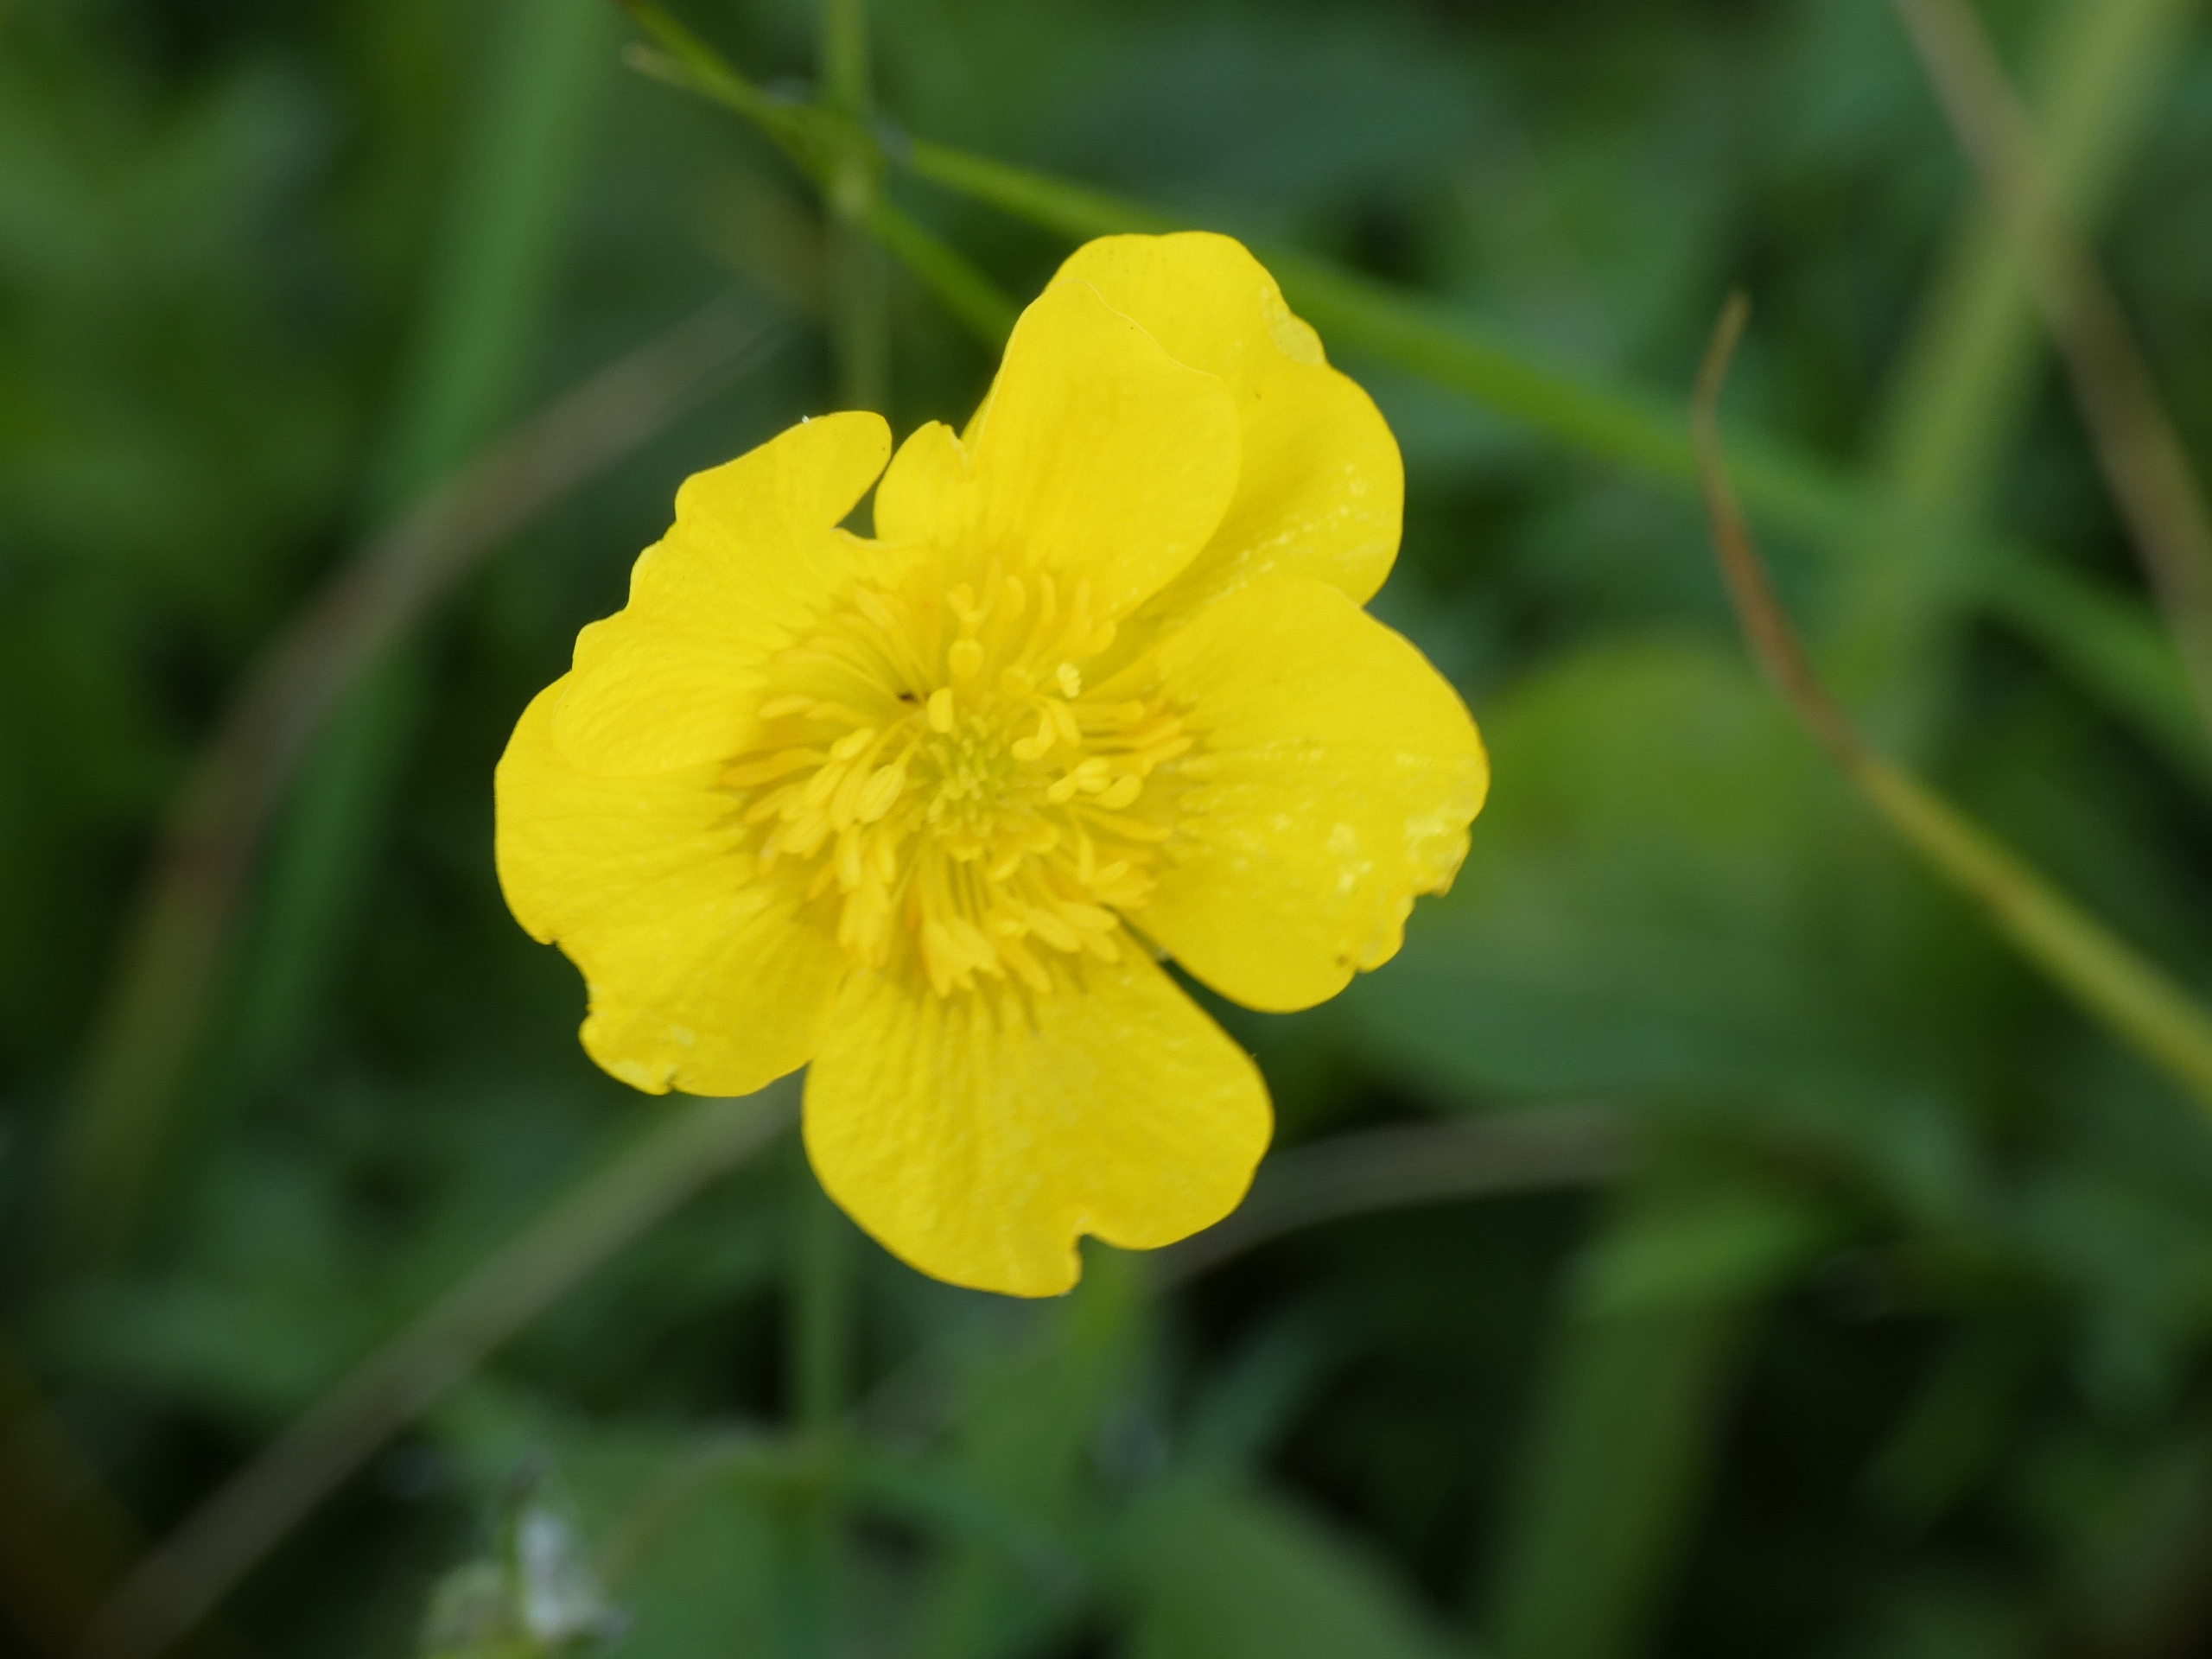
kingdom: Plantae
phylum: Tracheophyta
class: Magnoliopsida
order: Ranunculales
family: Ranunculaceae
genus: Ranunculus
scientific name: Ranunculus acris
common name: Bidende ranunkel
